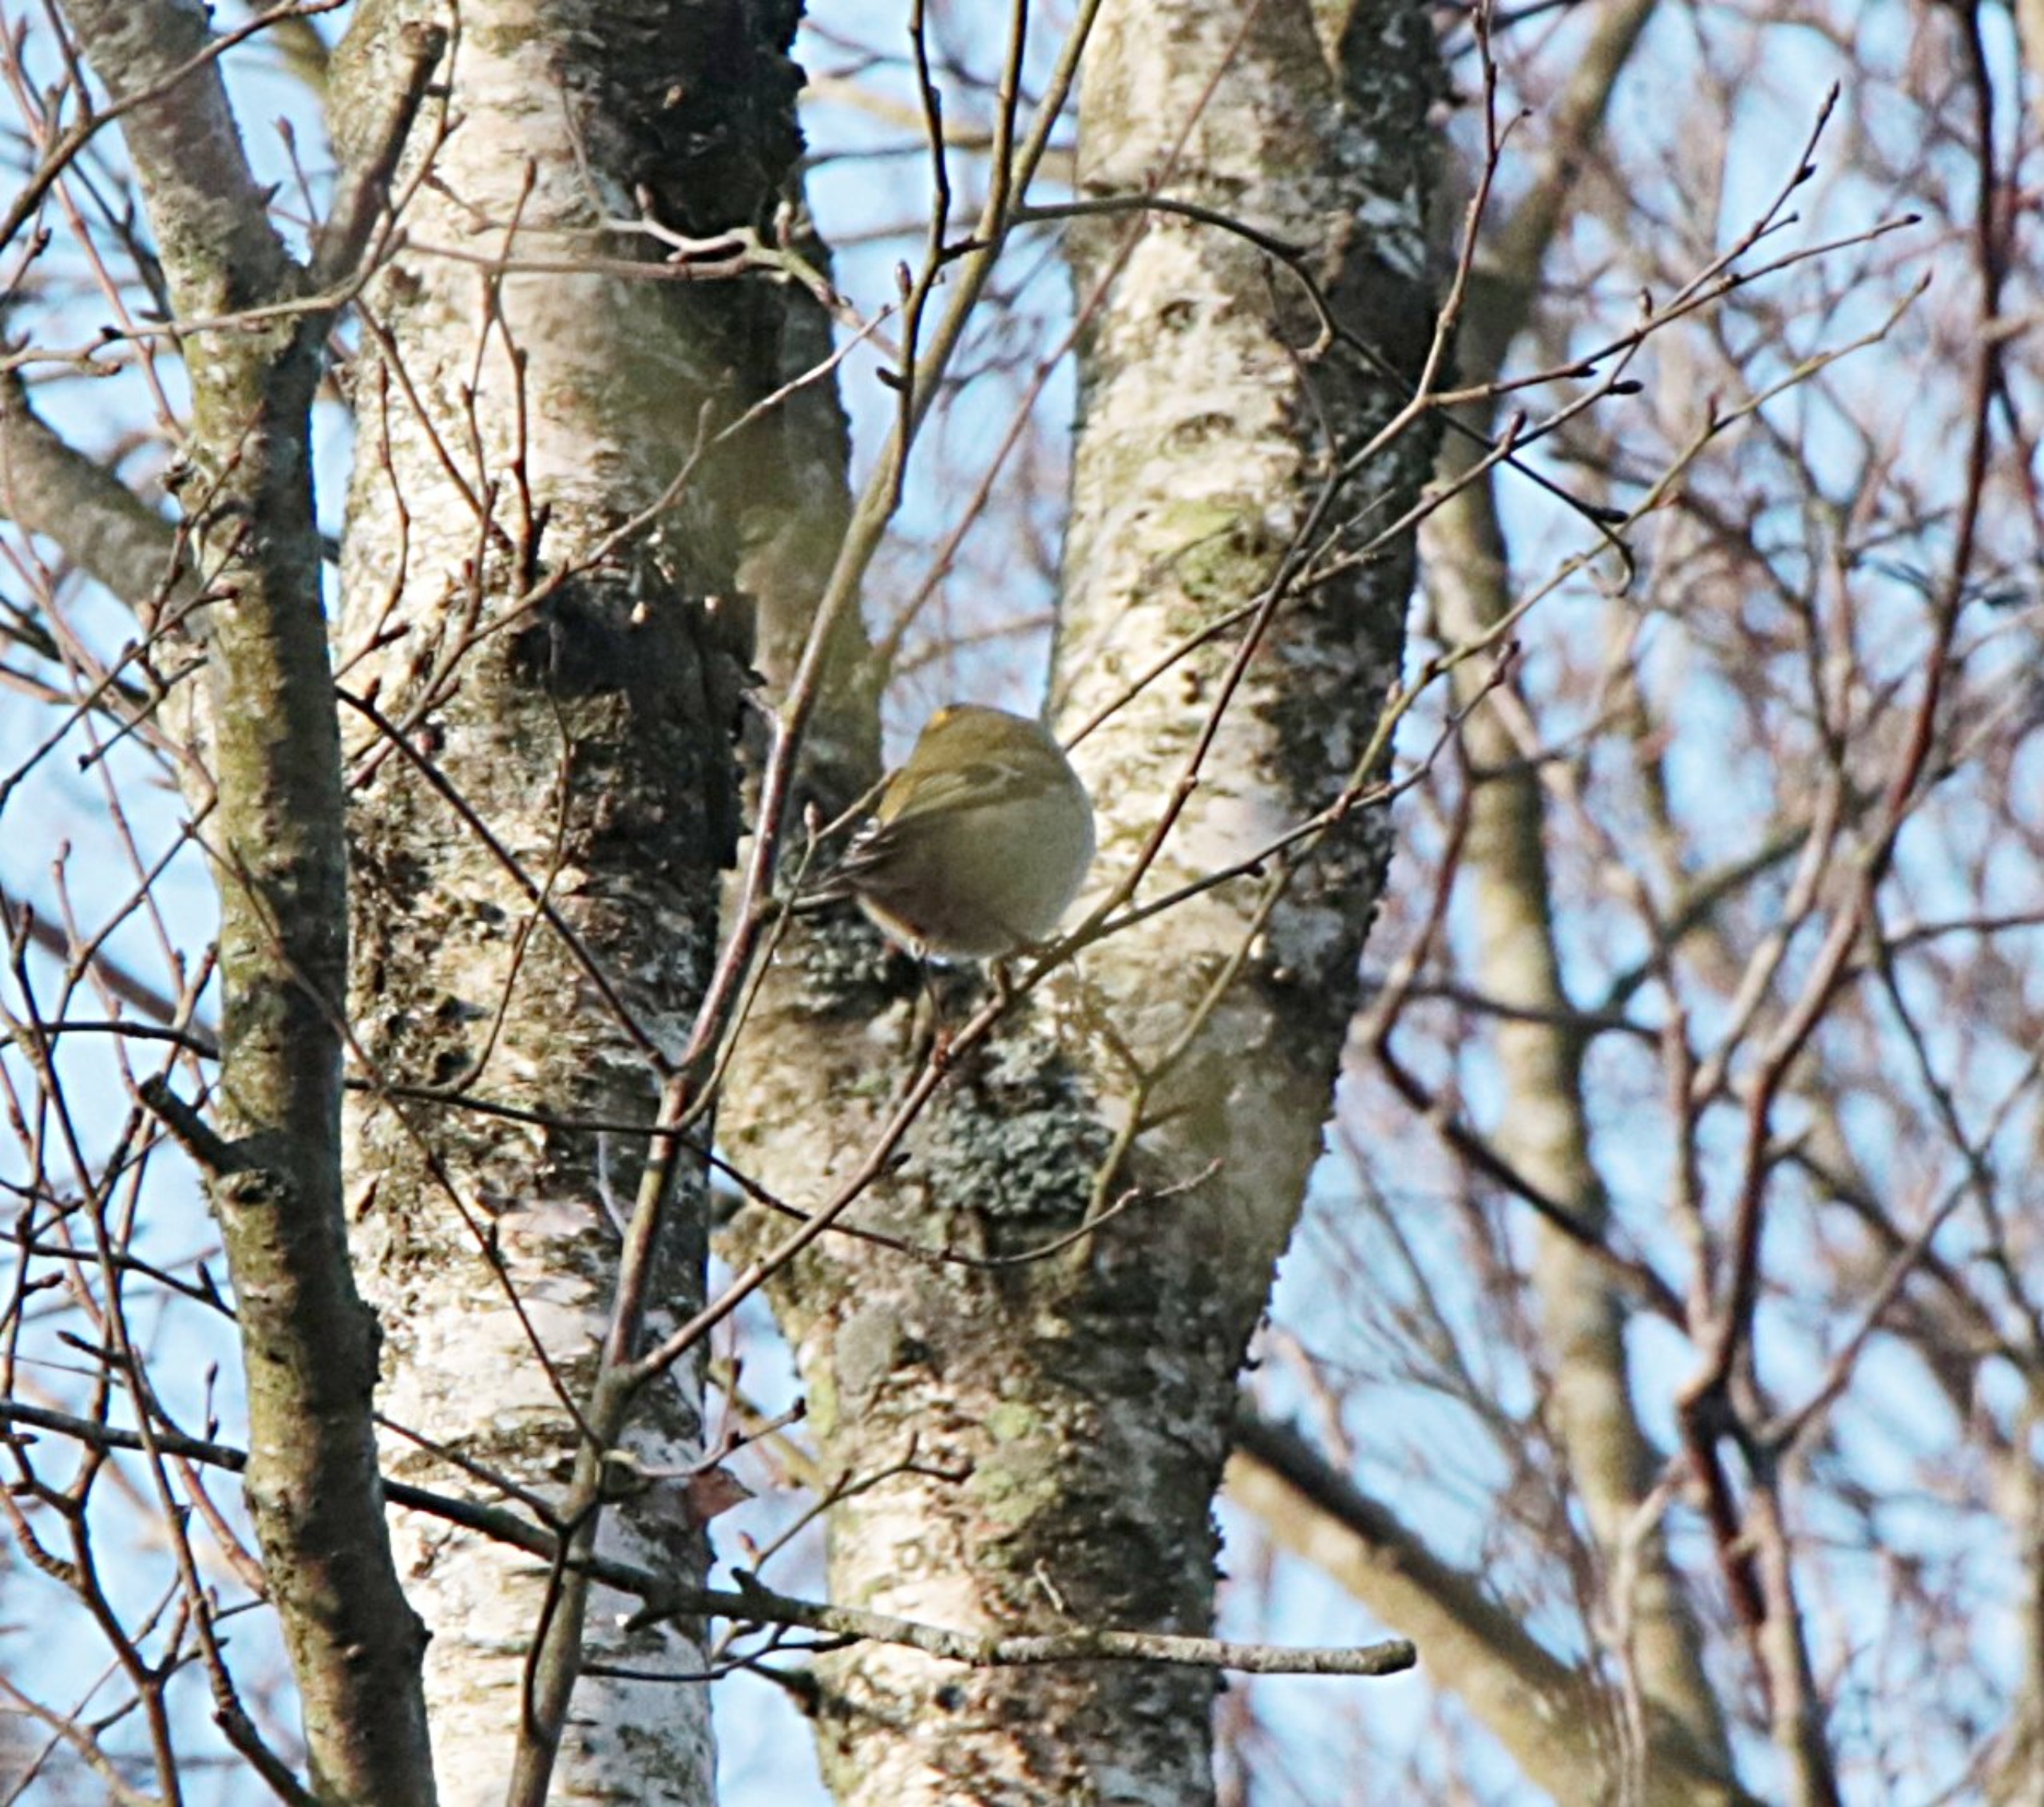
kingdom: Animalia
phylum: Chordata
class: Aves
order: Passeriformes
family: Regulidae
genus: Regulus
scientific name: Regulus regulus
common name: Fuglekonge
